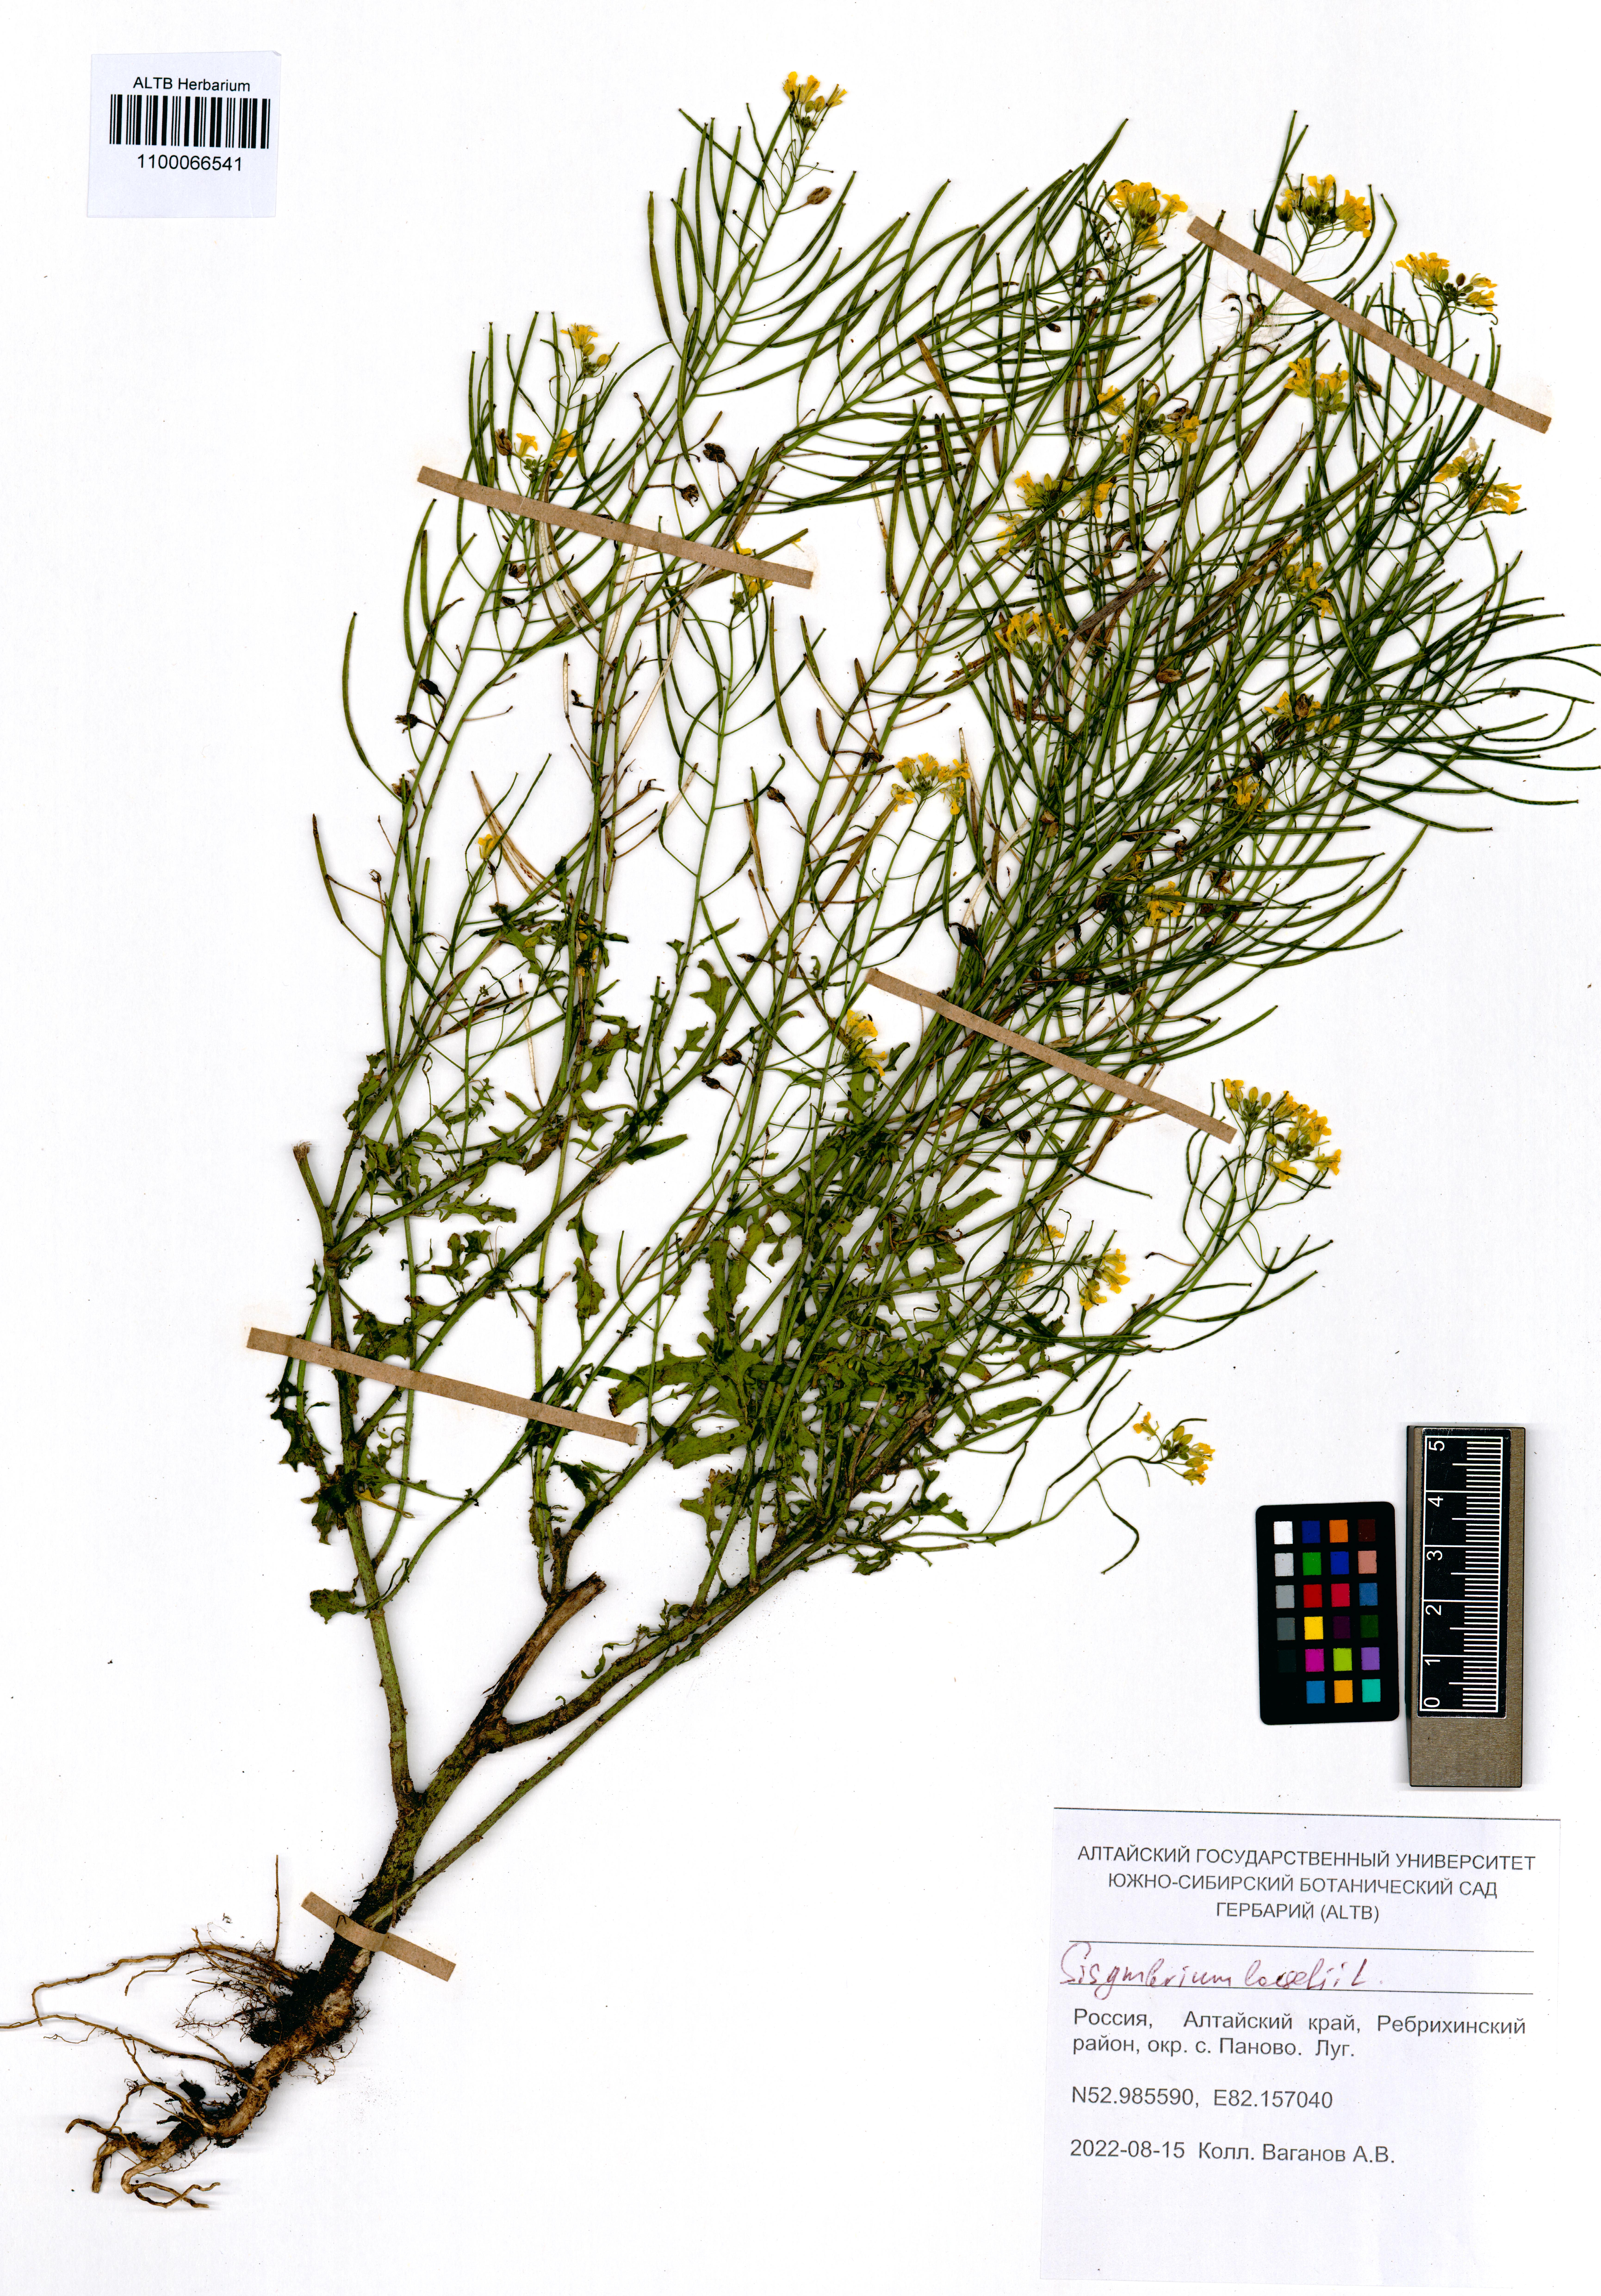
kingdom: Plantae
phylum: Tracheophyta
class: Magnoliopsida
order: Brassicales
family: Brassicaceae
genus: Sisymbrium
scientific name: Sisymbrium loeselii
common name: False london-rocket
